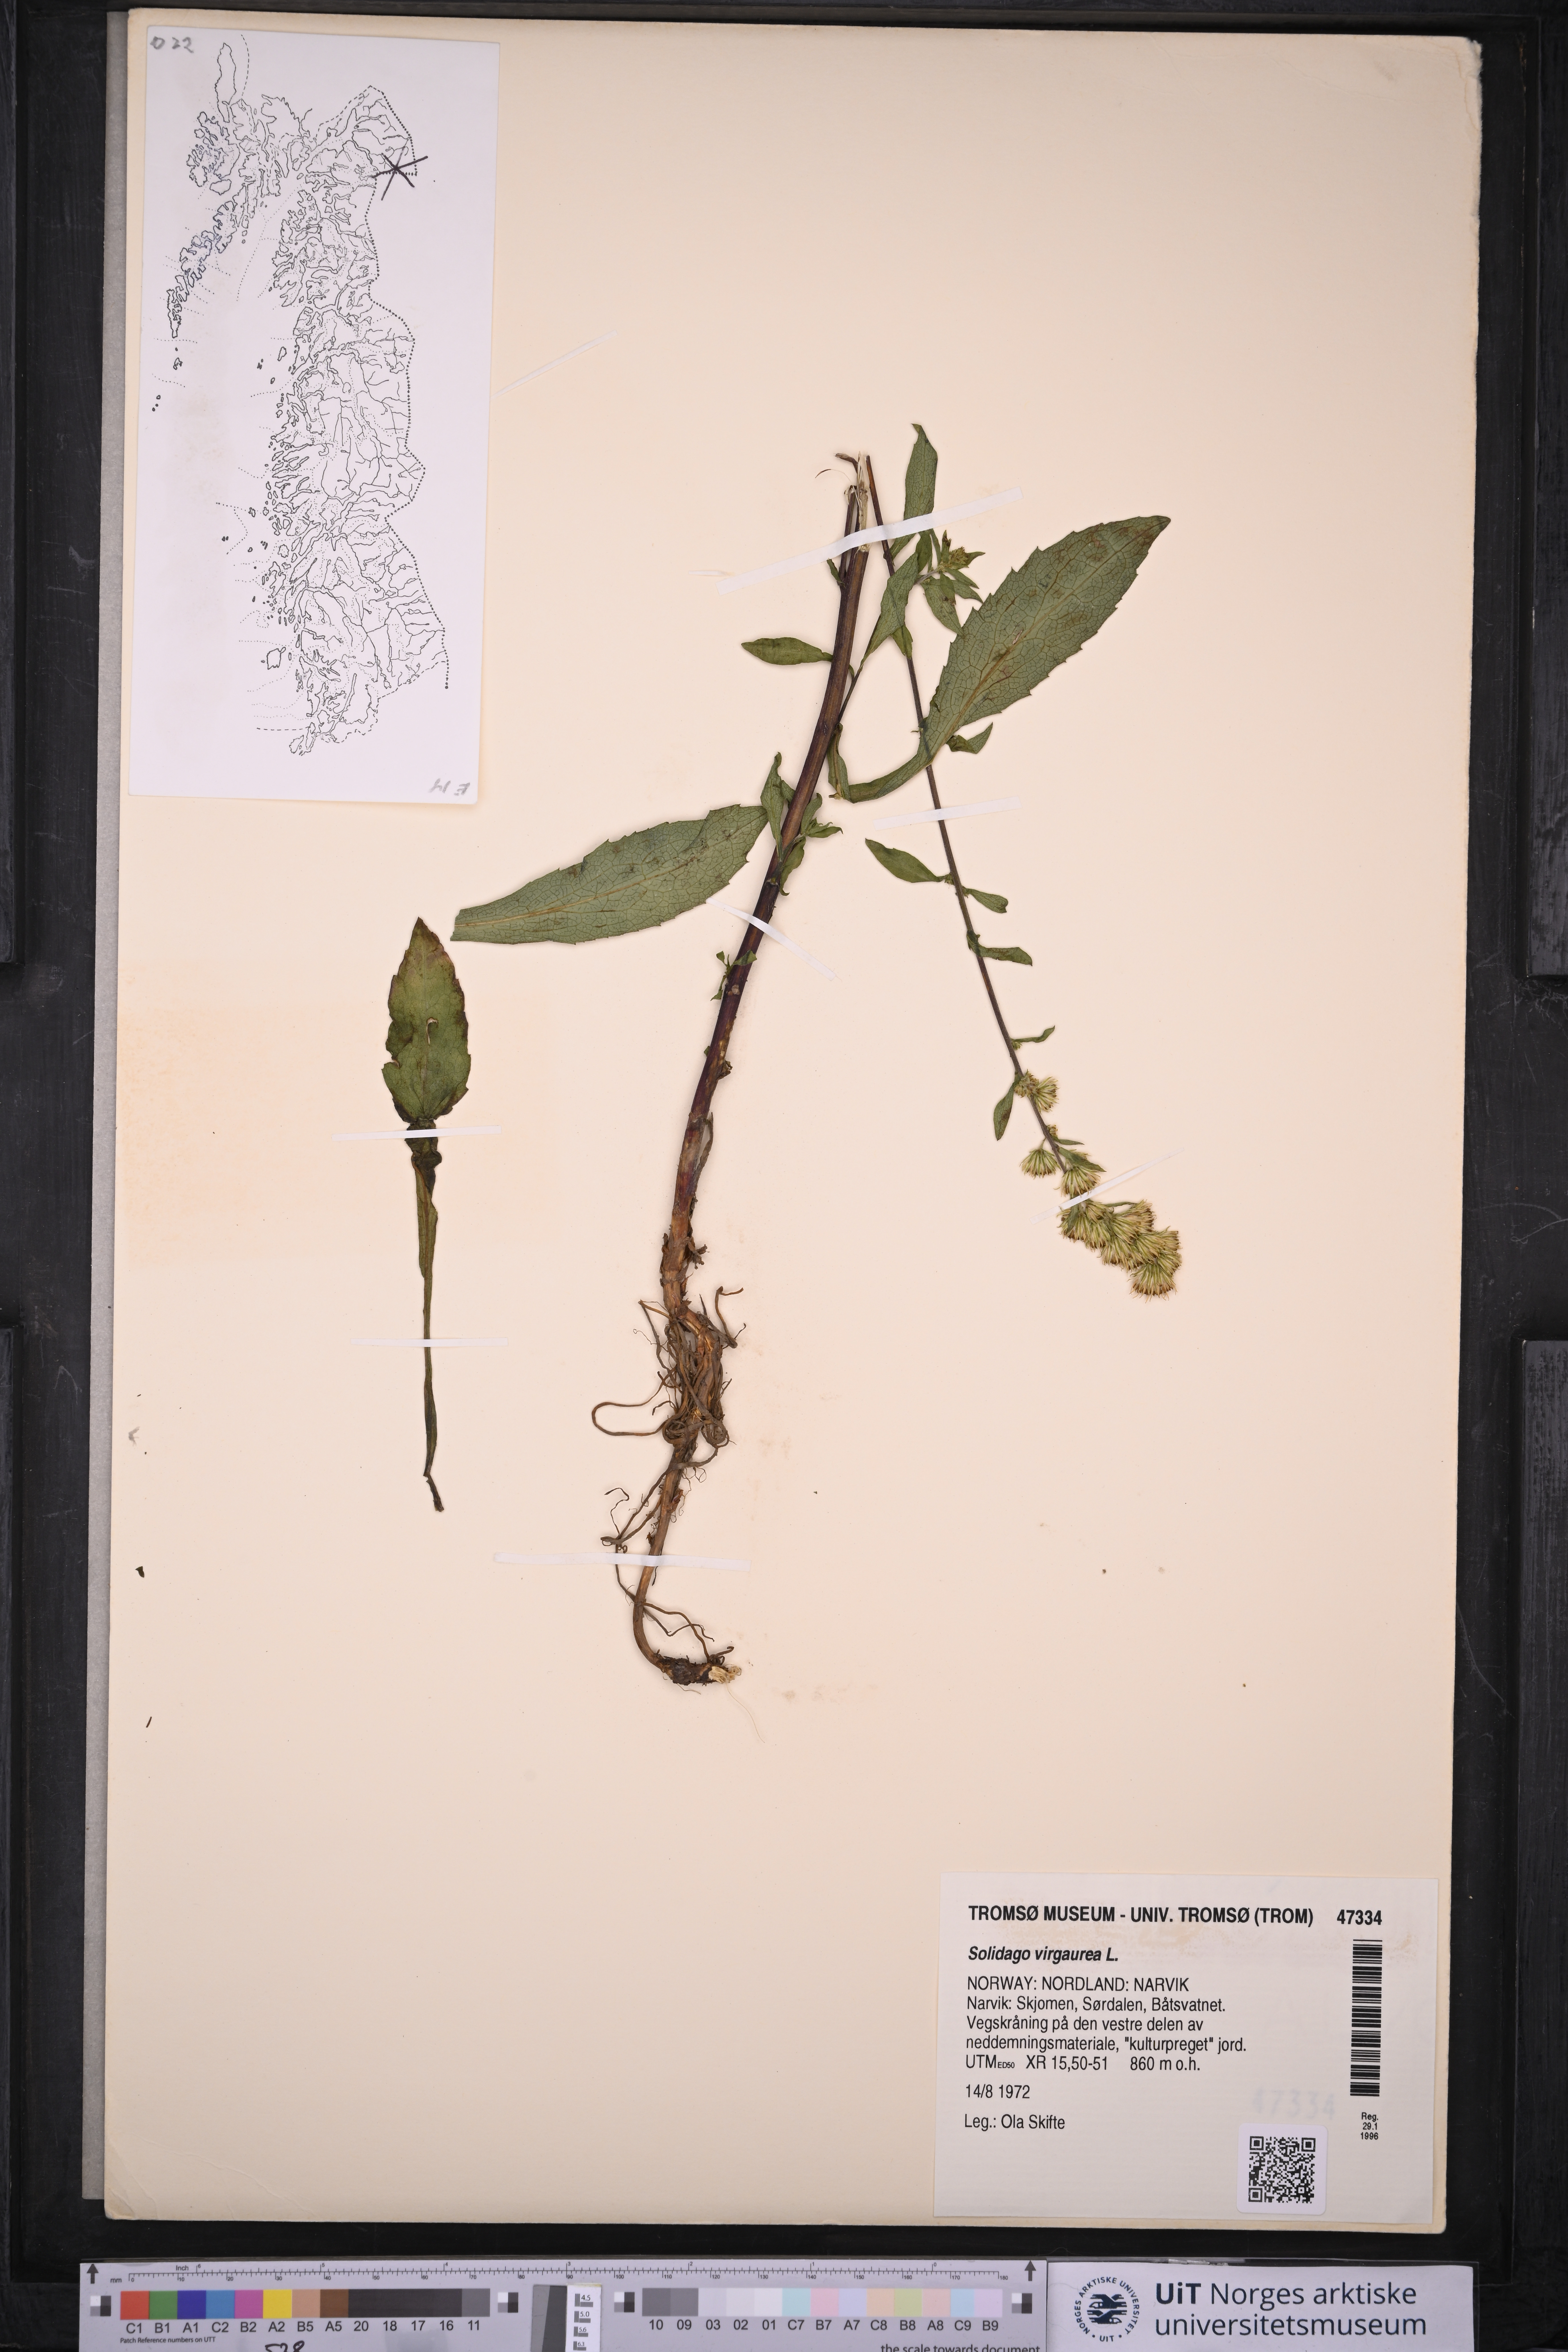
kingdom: Plantae
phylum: Tracheophyta
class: Magnoliopsida
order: Asterales
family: Asteraceae
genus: Solidago
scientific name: Solidago virgaurea
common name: Goldenrod
